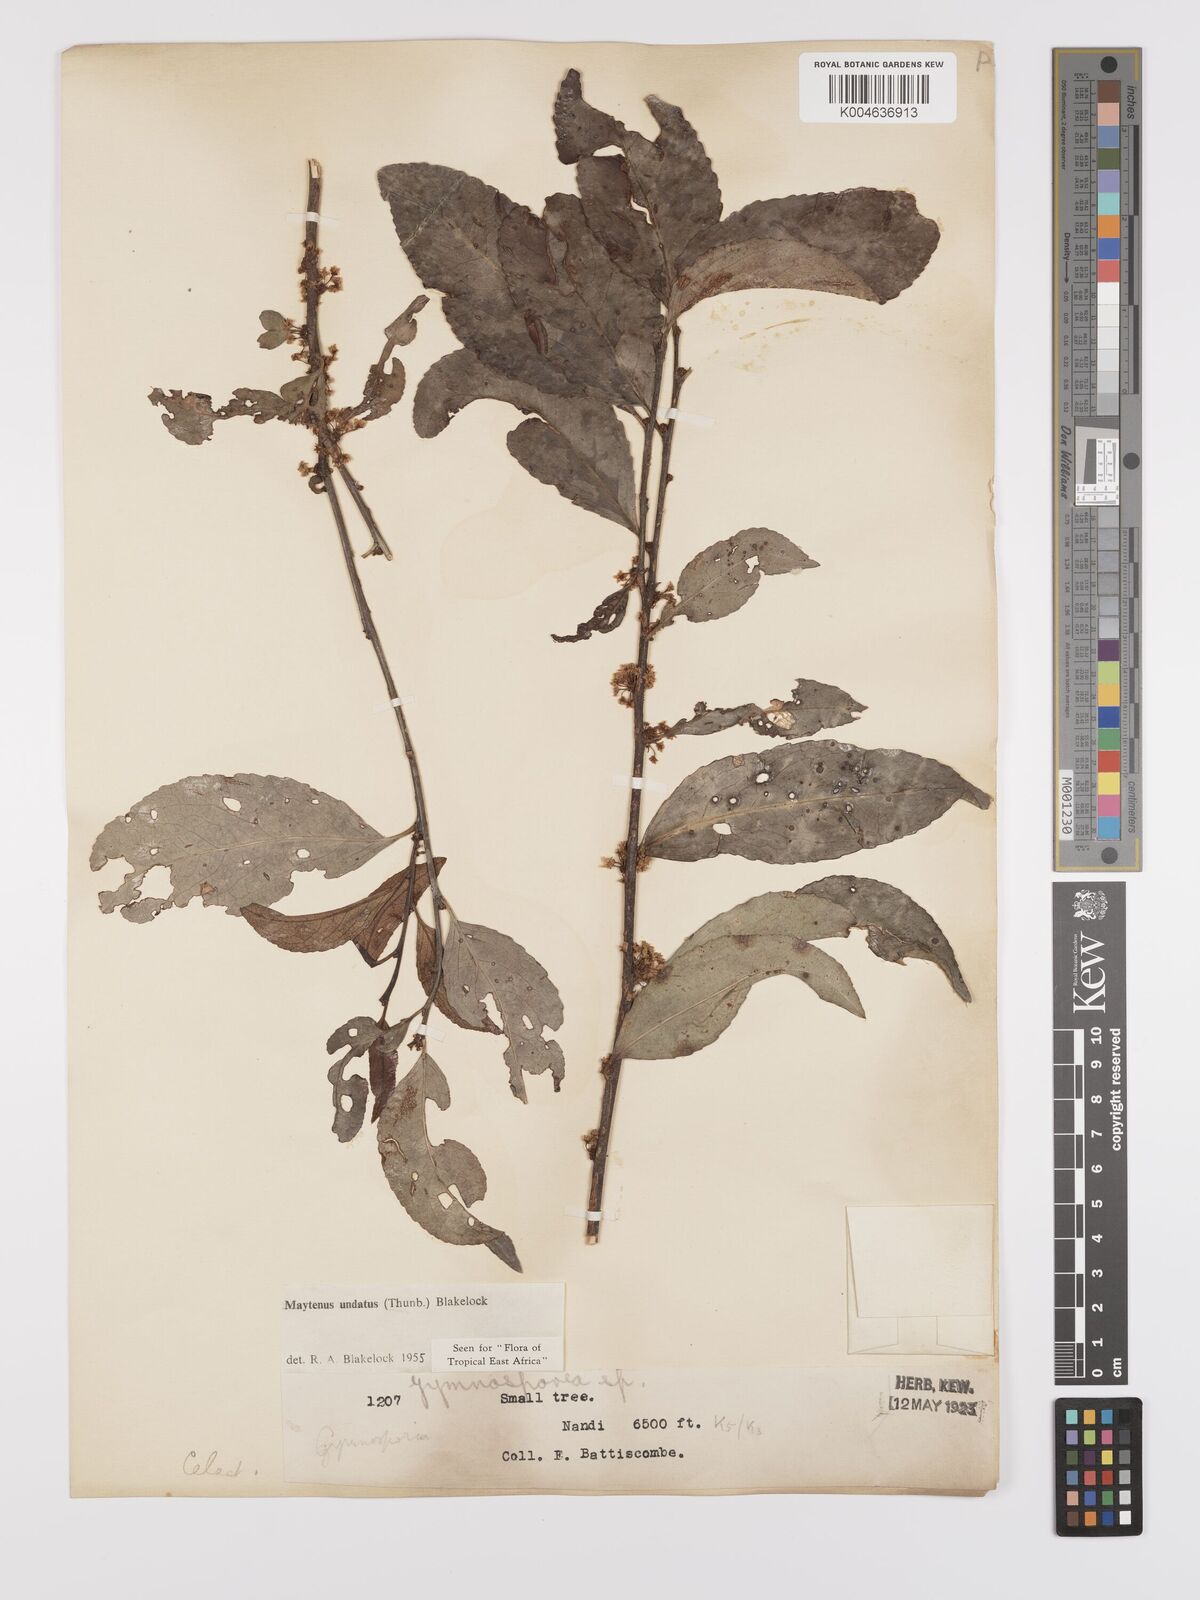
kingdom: Plantae
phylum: Tracheophyta
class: Magnoliopsida
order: Celastrales
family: Celastraceae
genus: Gymnosporia
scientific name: Gymnosporia undata
